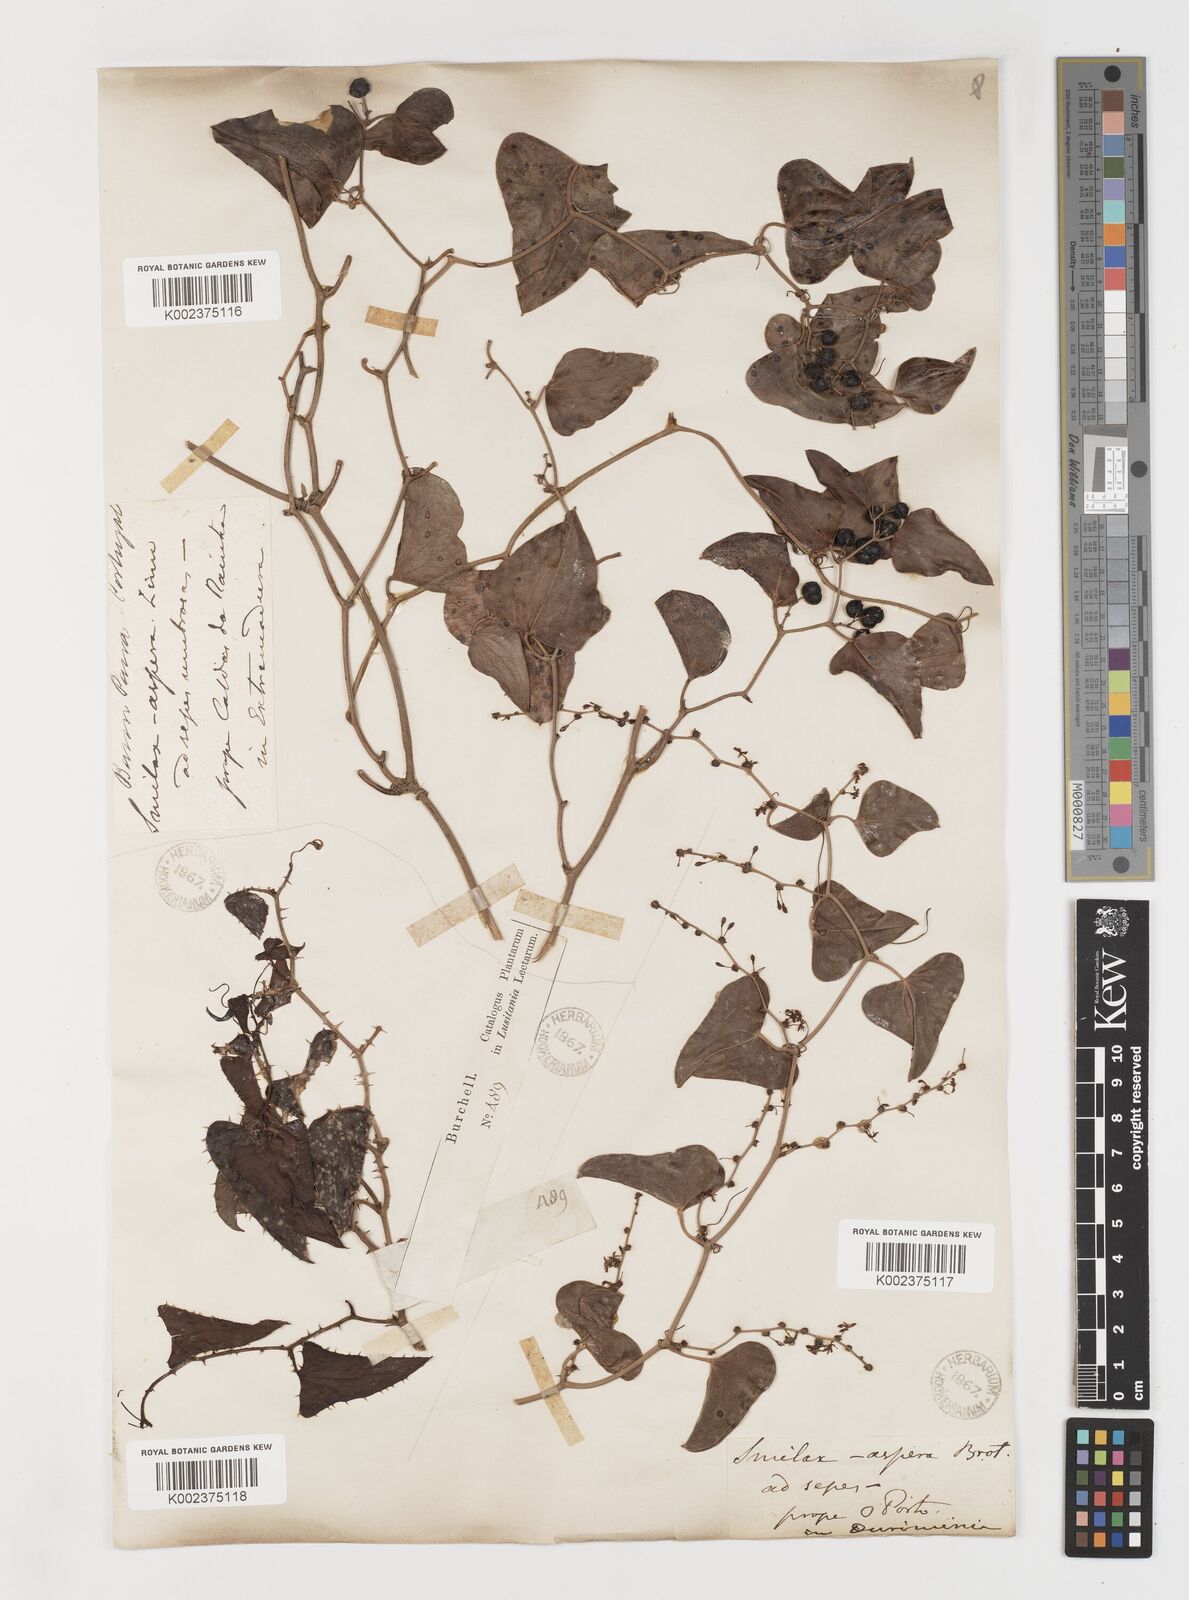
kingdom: Plantae
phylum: Tracheophyta
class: Liliopsida
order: Liliales
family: Smilacaceae
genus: Smilax
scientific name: Smilax aspera
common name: Common smilax
